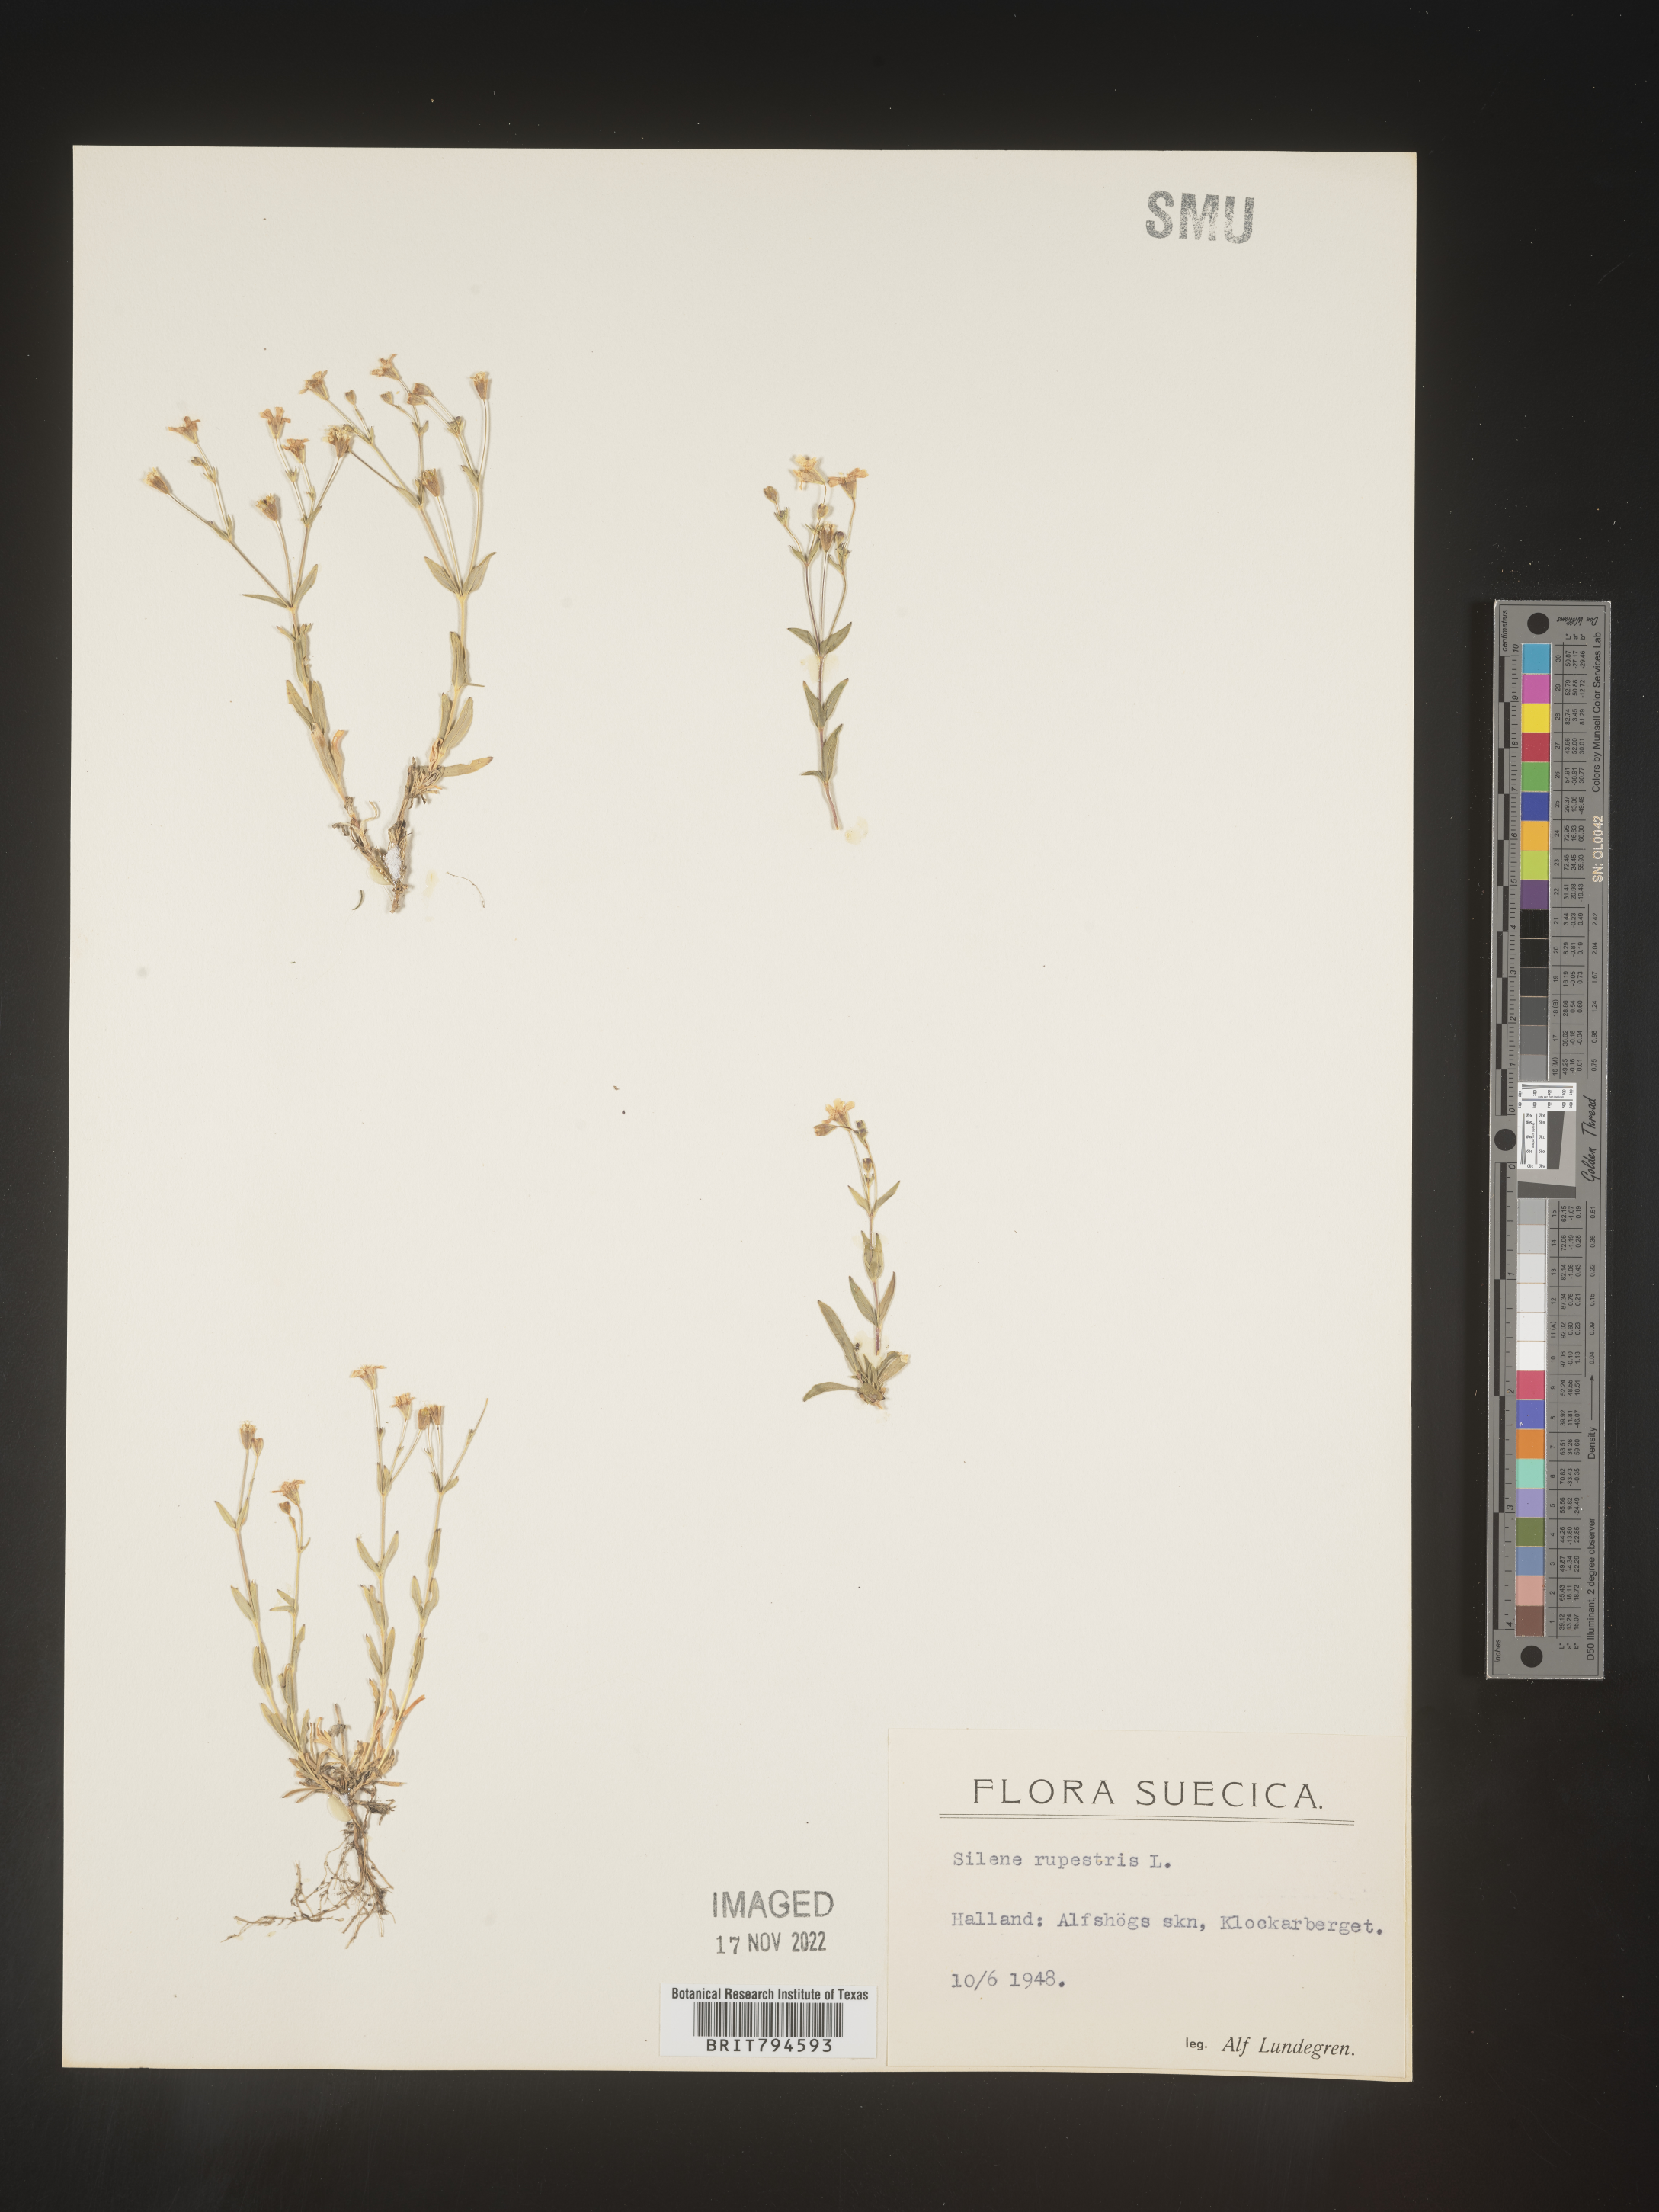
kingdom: Plantae
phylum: Tracheophyta
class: Magnoliopsida
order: Caryophyllales
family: Caryophyllaceae
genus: Atocion
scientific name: Atocion rupestre
